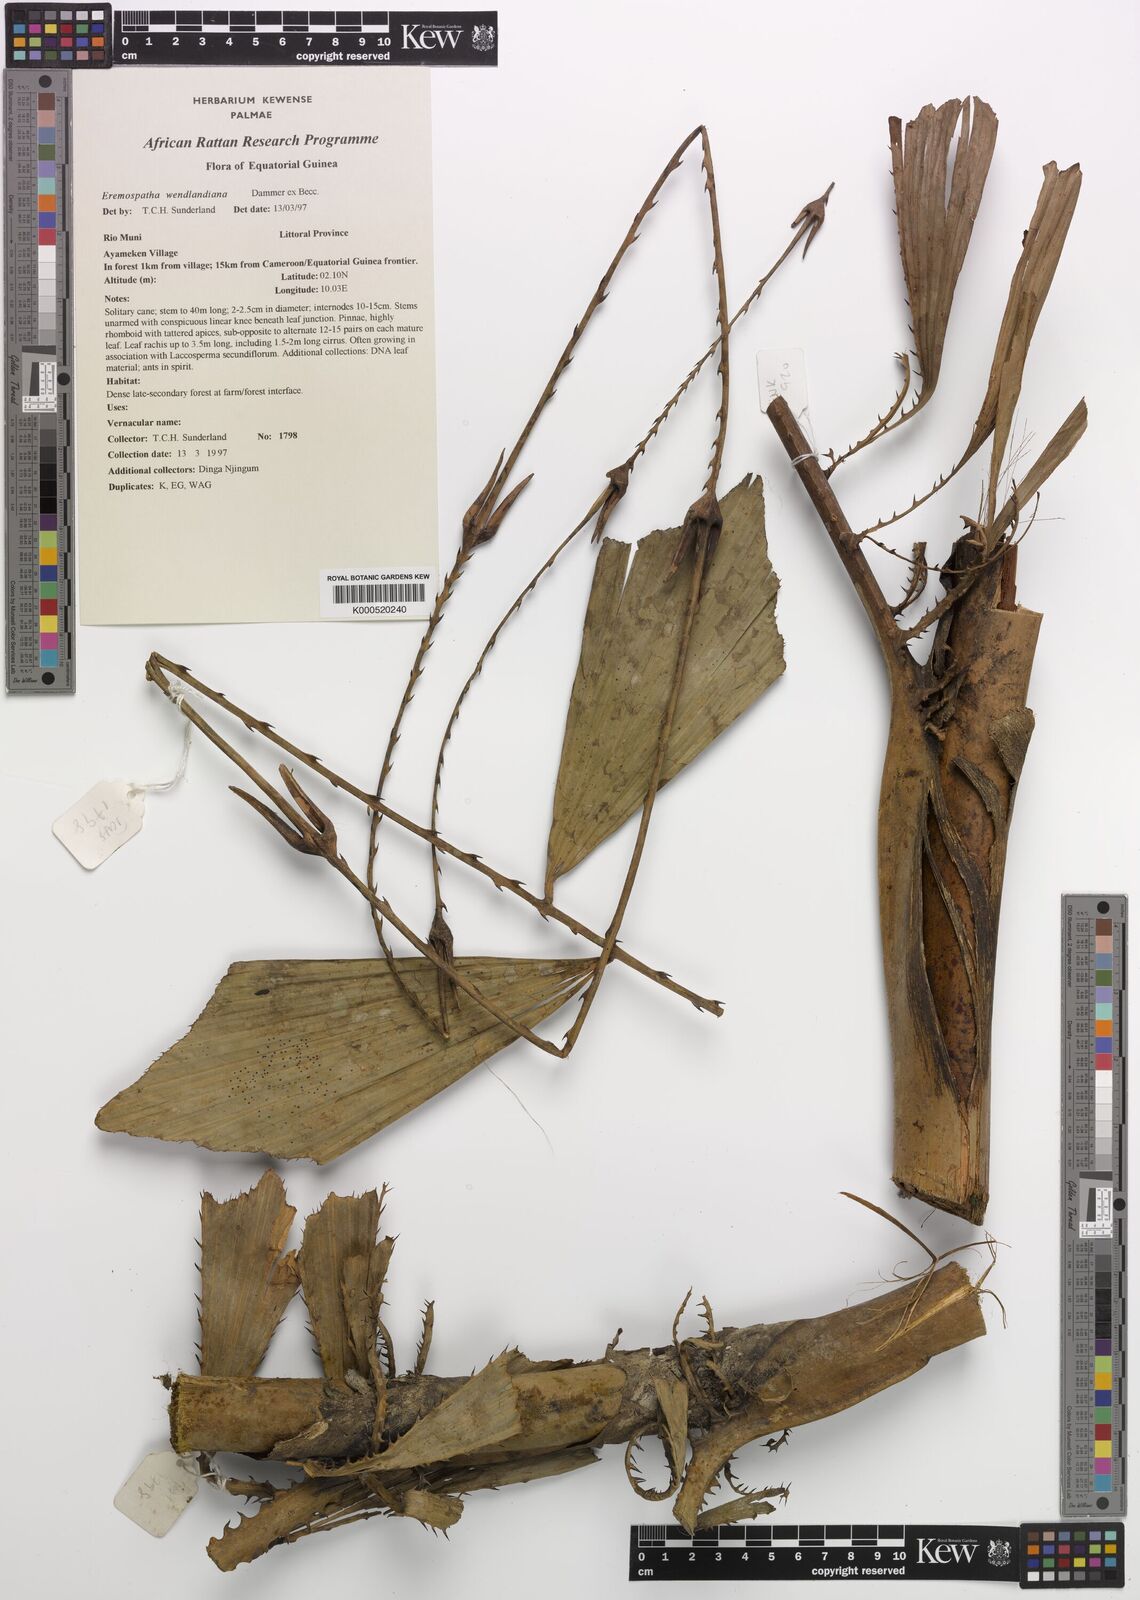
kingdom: Plantae
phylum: Tracheophyta
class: Liliopsida
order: Arecales
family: Arecaceae
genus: Eremospatha
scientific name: Eremospatha wendlandiana
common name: Rattan
